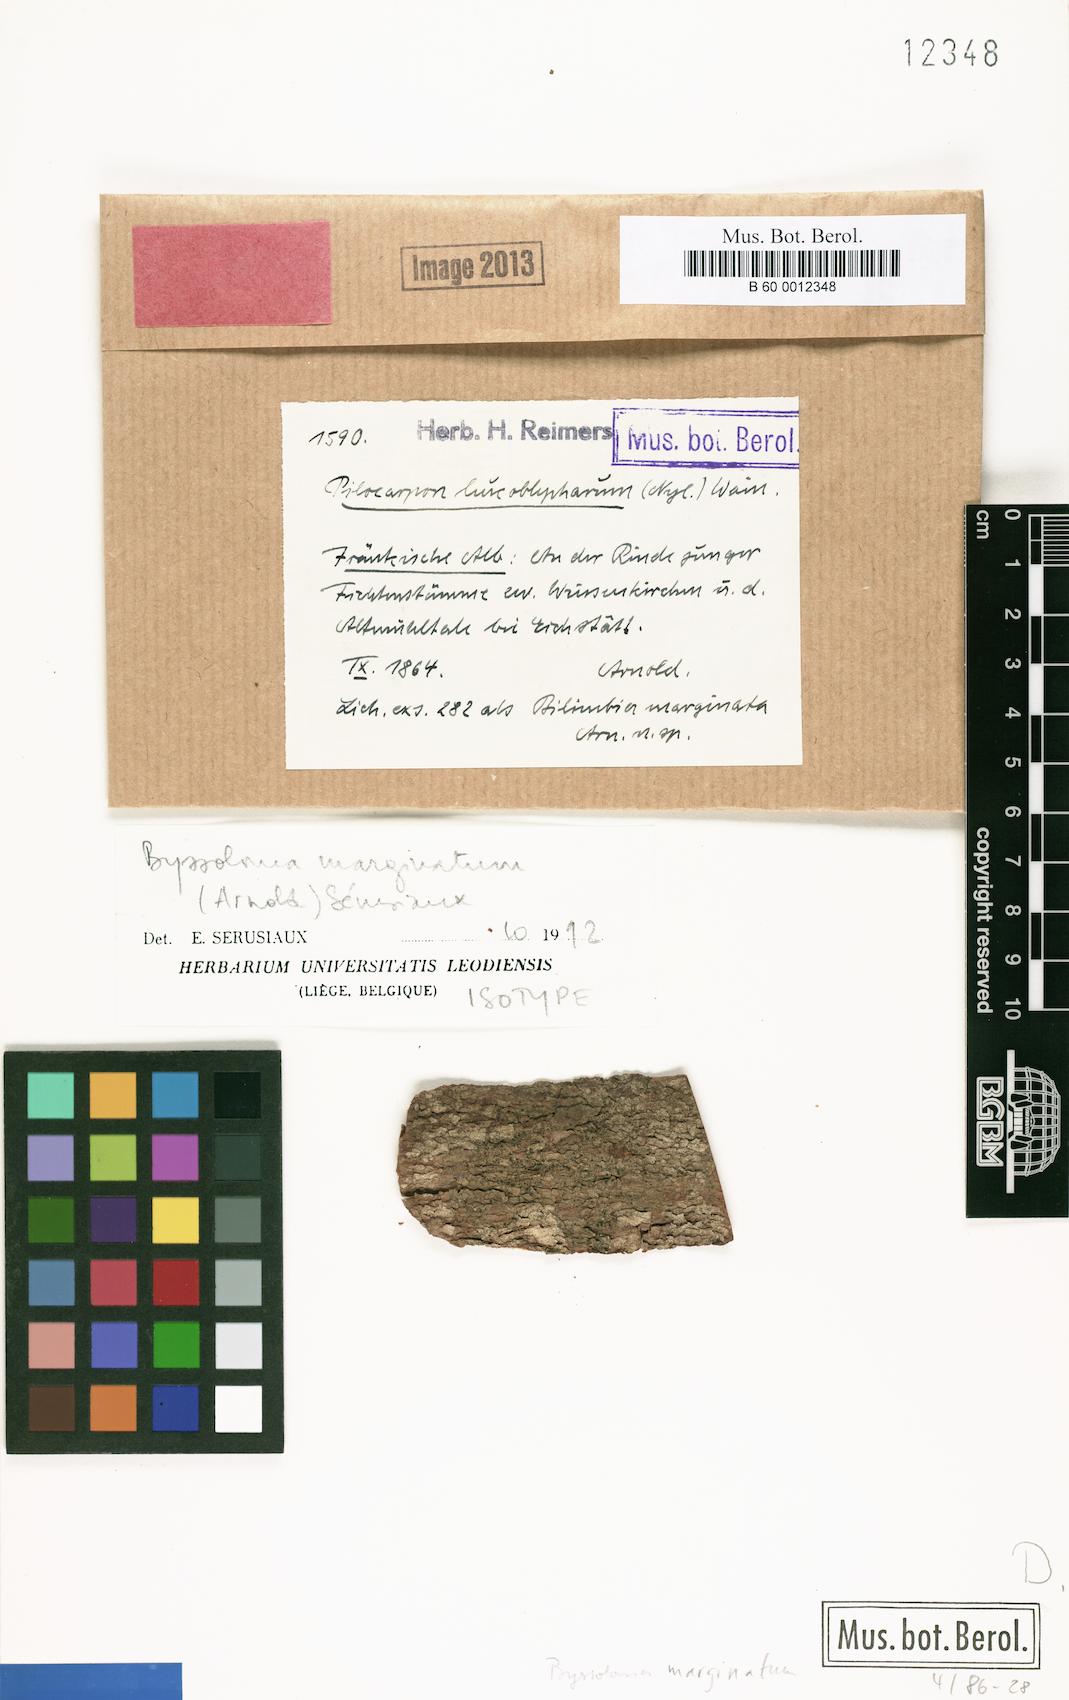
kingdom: Fungi
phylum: Ascomycota
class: Lecanoromycetes
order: Lecanorales
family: Byssolomataceae
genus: Byssoloma
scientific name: Byssoloma marginatum
